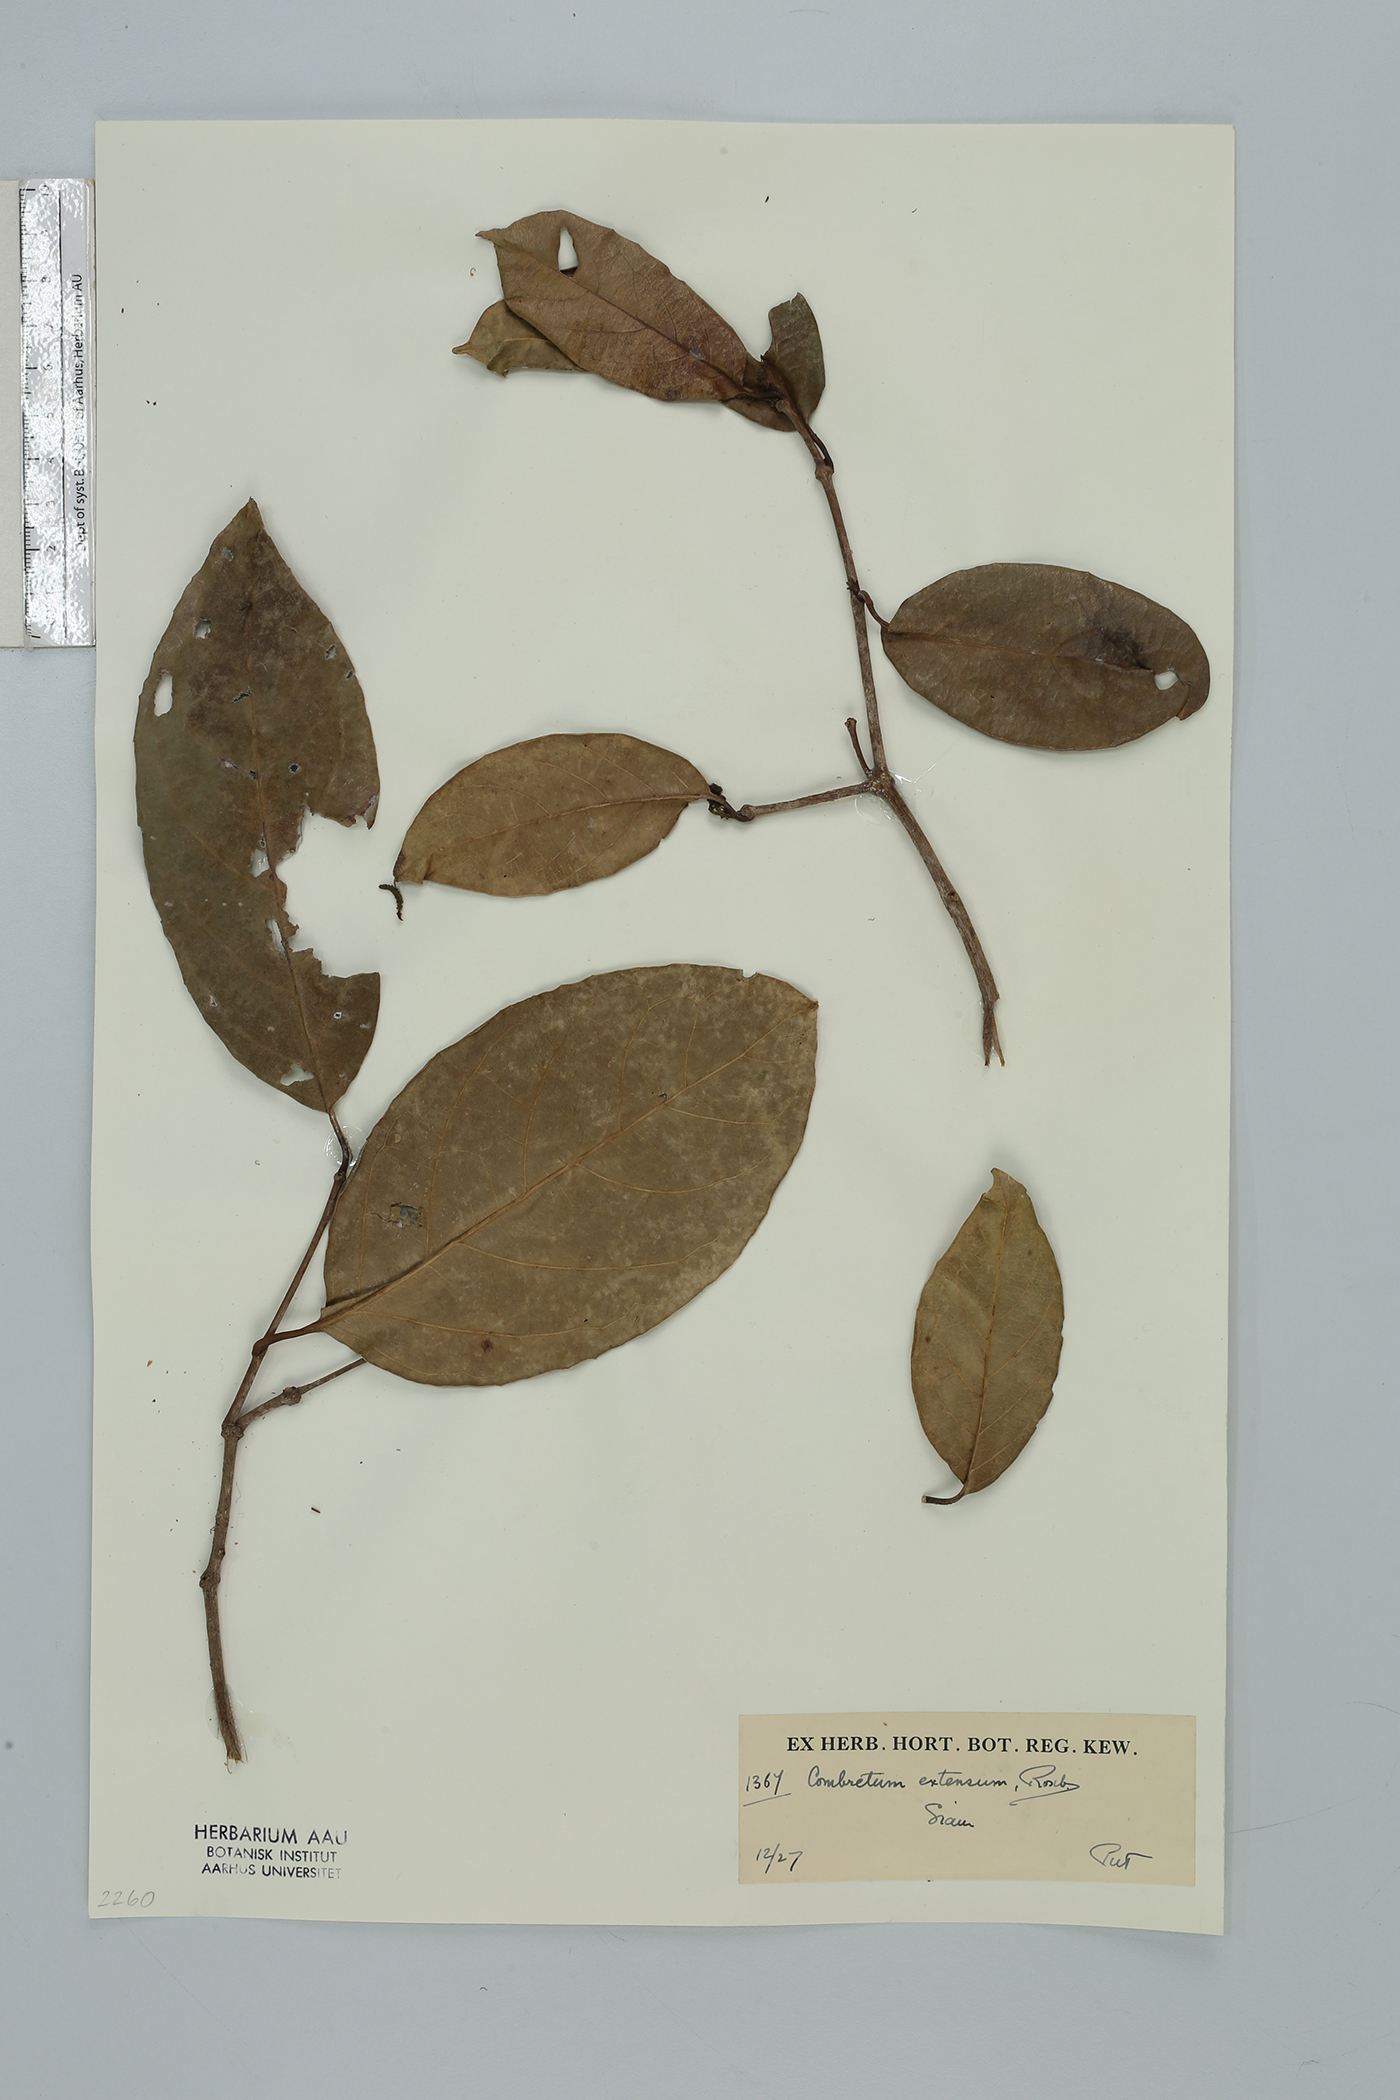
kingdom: Plantae
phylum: Tracheophyta
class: Magnoliopsida
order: Myrtales
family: Combretaceae
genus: Combretum
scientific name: Combretum latifolium
